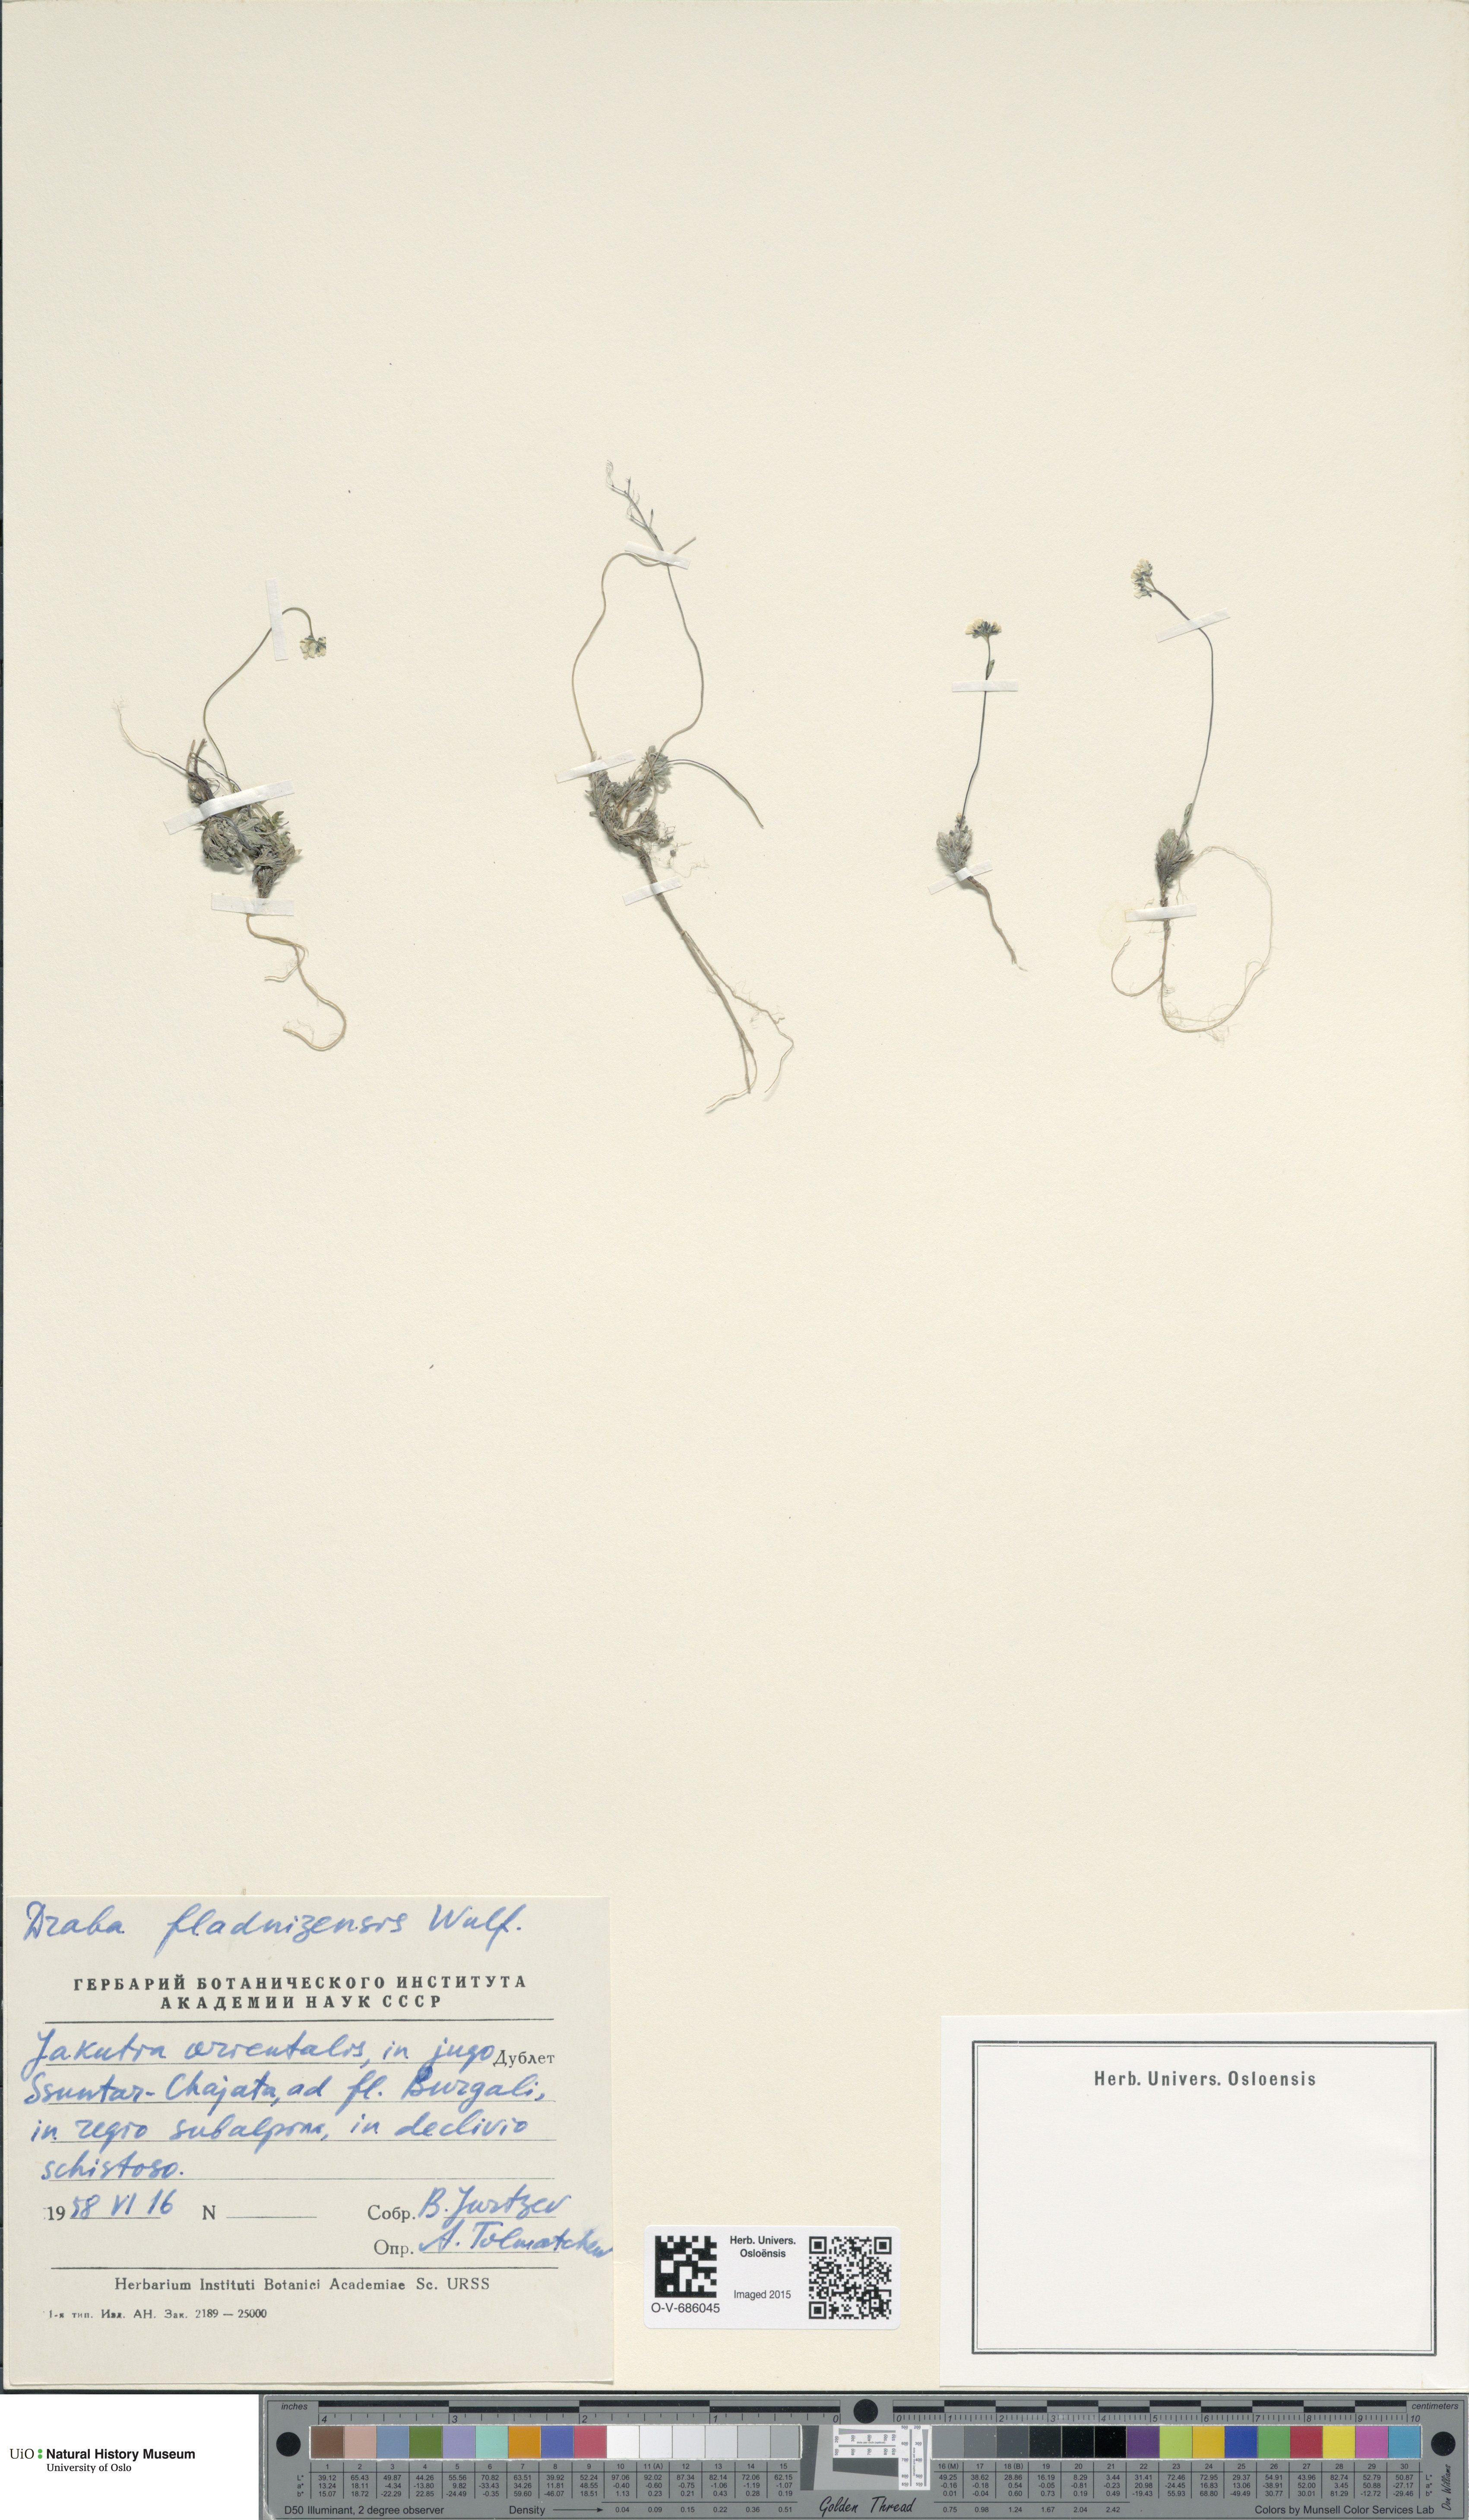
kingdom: Plantae
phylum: Tracheophyta
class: Magnoliopsida
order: Brassicales
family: Brassicaceae
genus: Draba
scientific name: Draba fladnizensis
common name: Austrian draba
